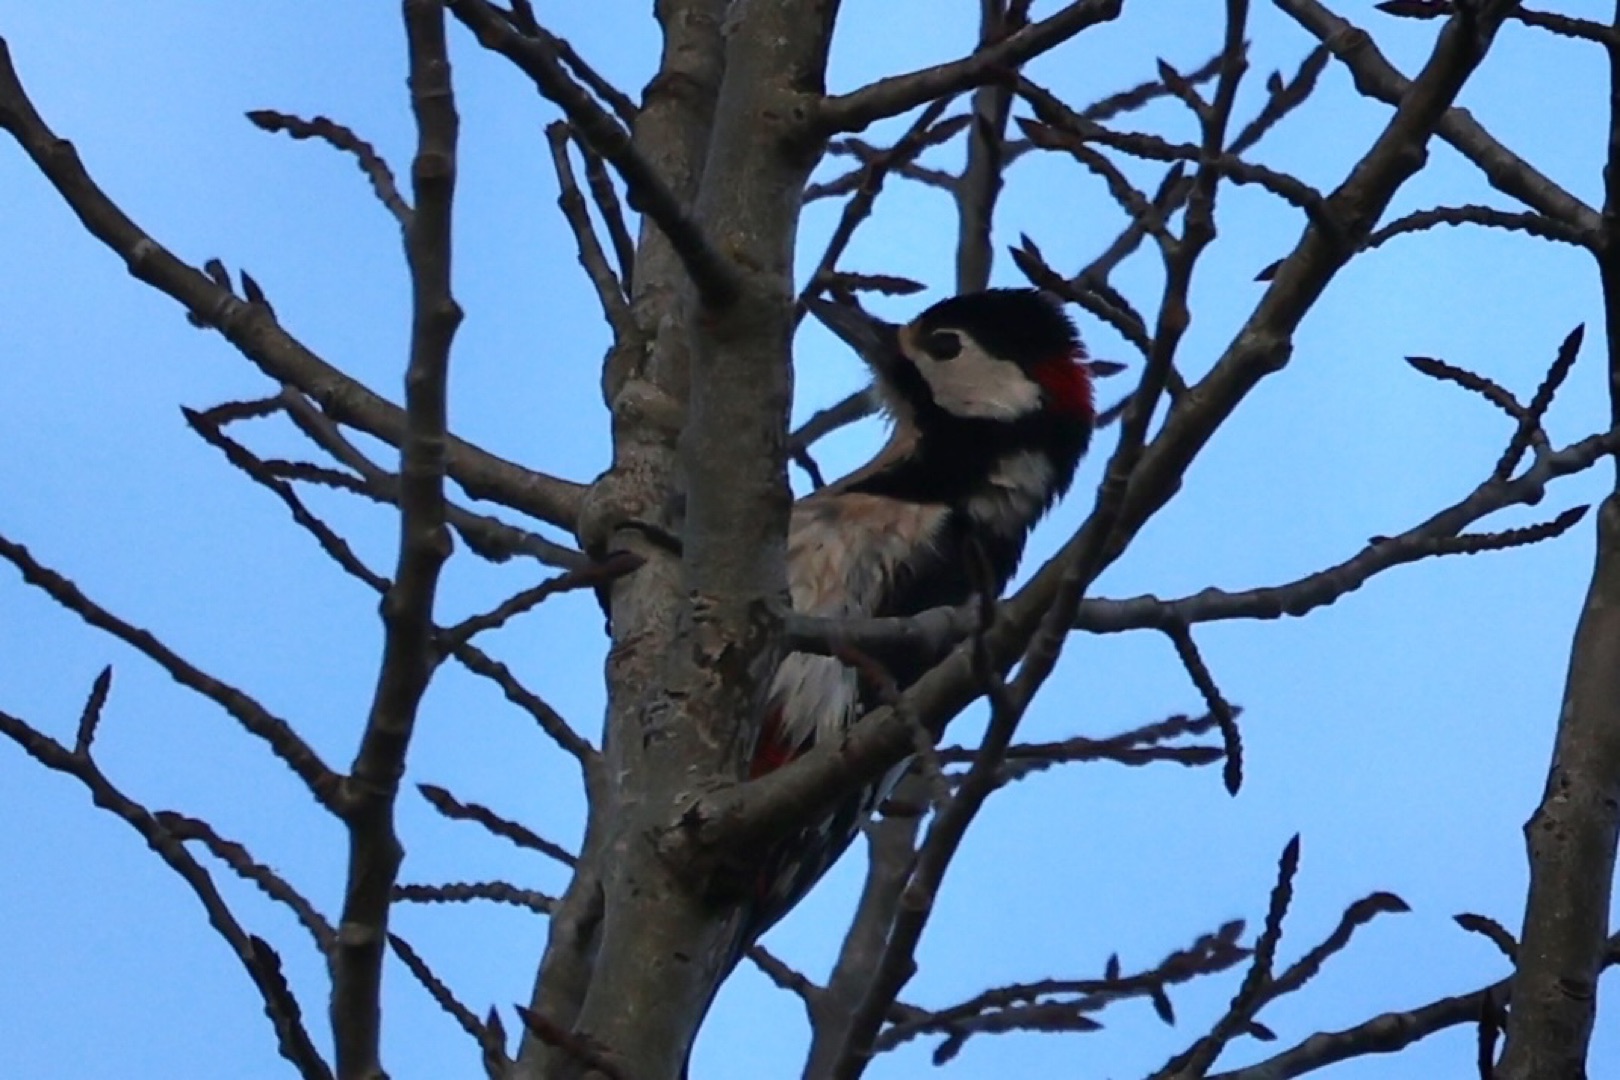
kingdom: Animalia
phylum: Chordata
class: Aves
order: Piciformes
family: Picidae
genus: Dendrocopos
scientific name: Dendrocopos major
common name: Stor flagspætte
